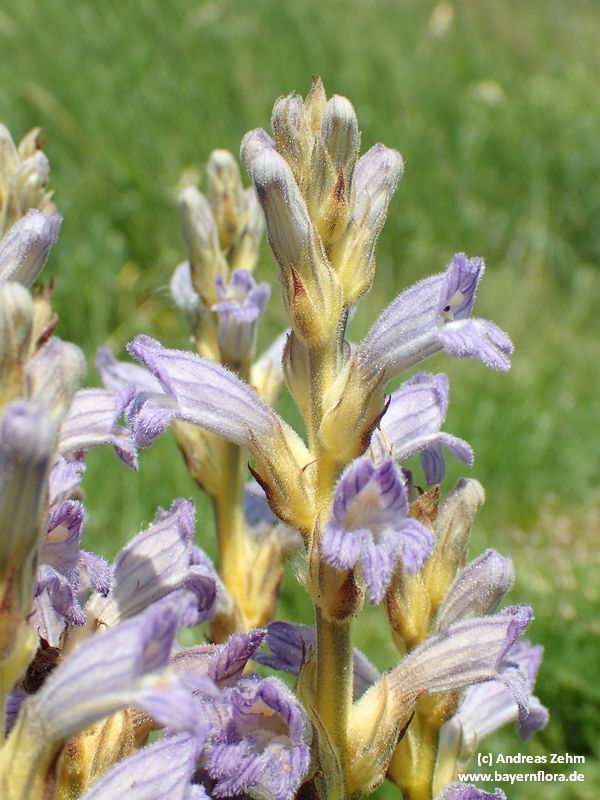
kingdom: Plantae
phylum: Tracheophyta
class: Magnoliopsida
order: Lamiales
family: Orobanchaceae
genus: Phelipanche
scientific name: Phelipanche purpurea
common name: Purple broomrape
